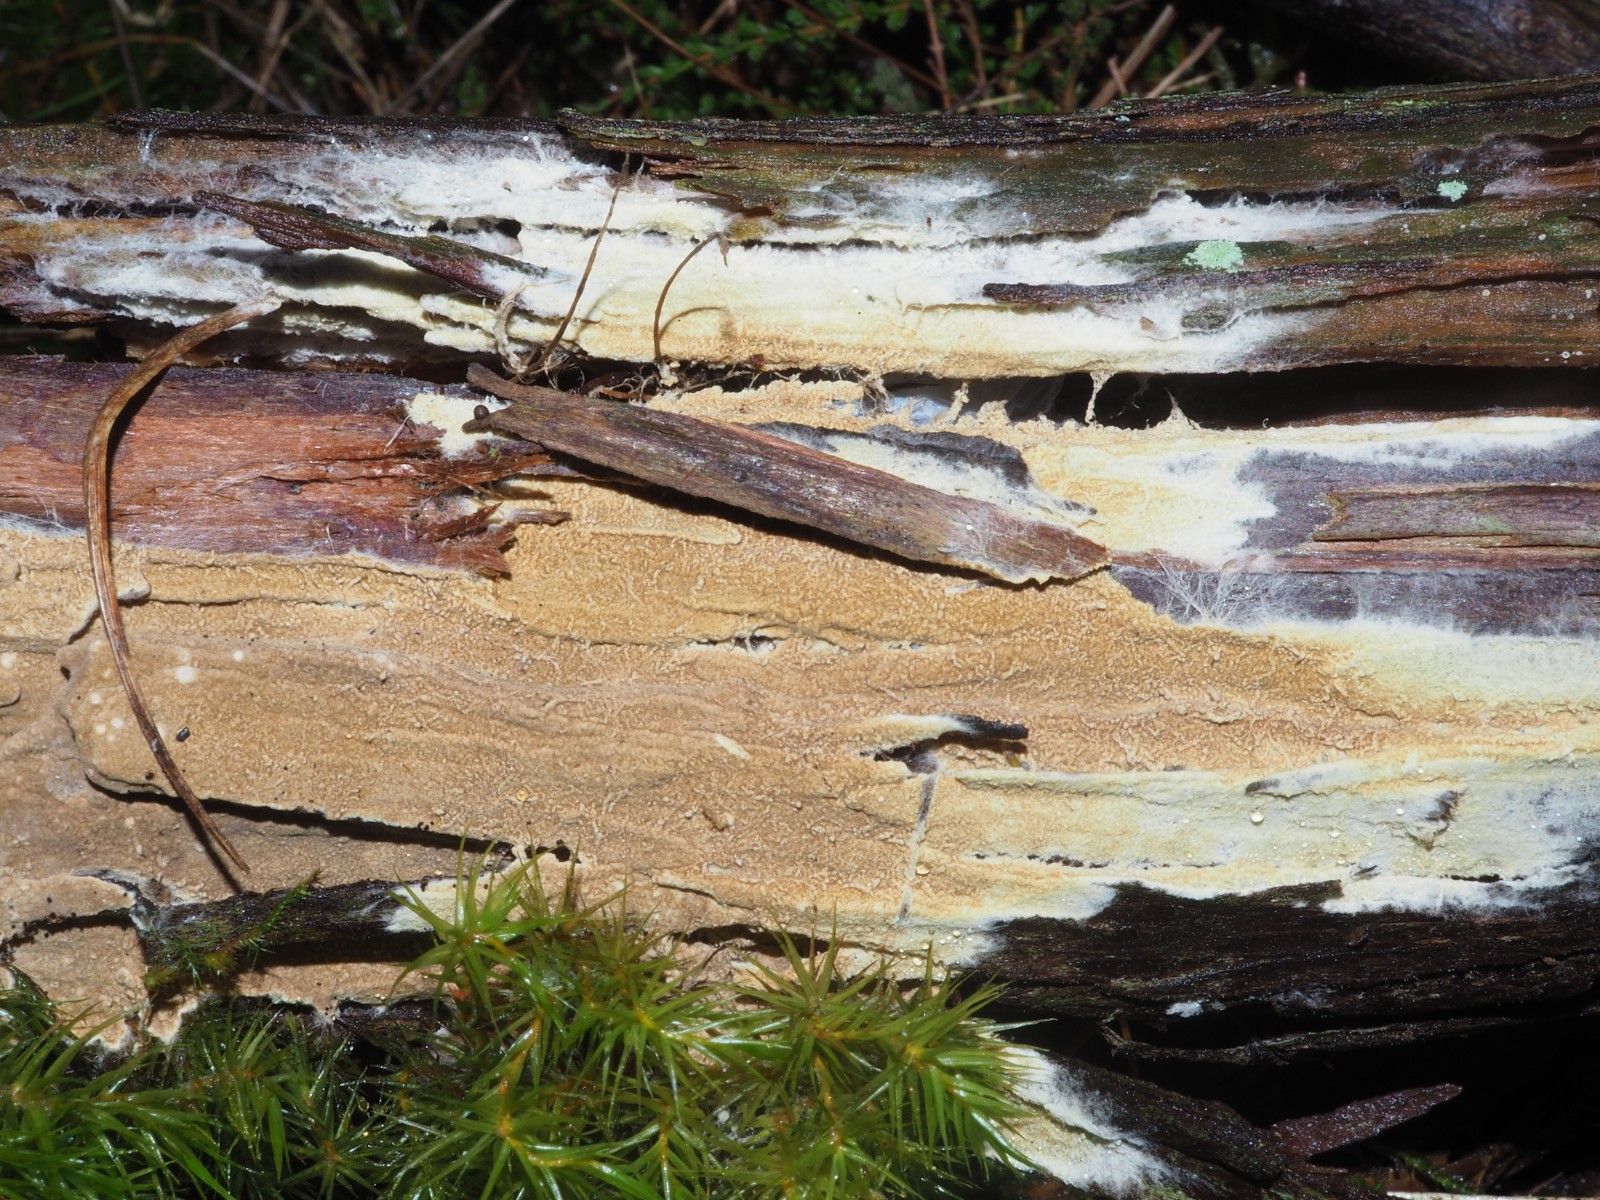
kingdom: Fungi
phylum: Basidiomycota
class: Agaricomycetes
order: Boletales
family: Coniophoraceae
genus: Coniophora
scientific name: Coniophora
